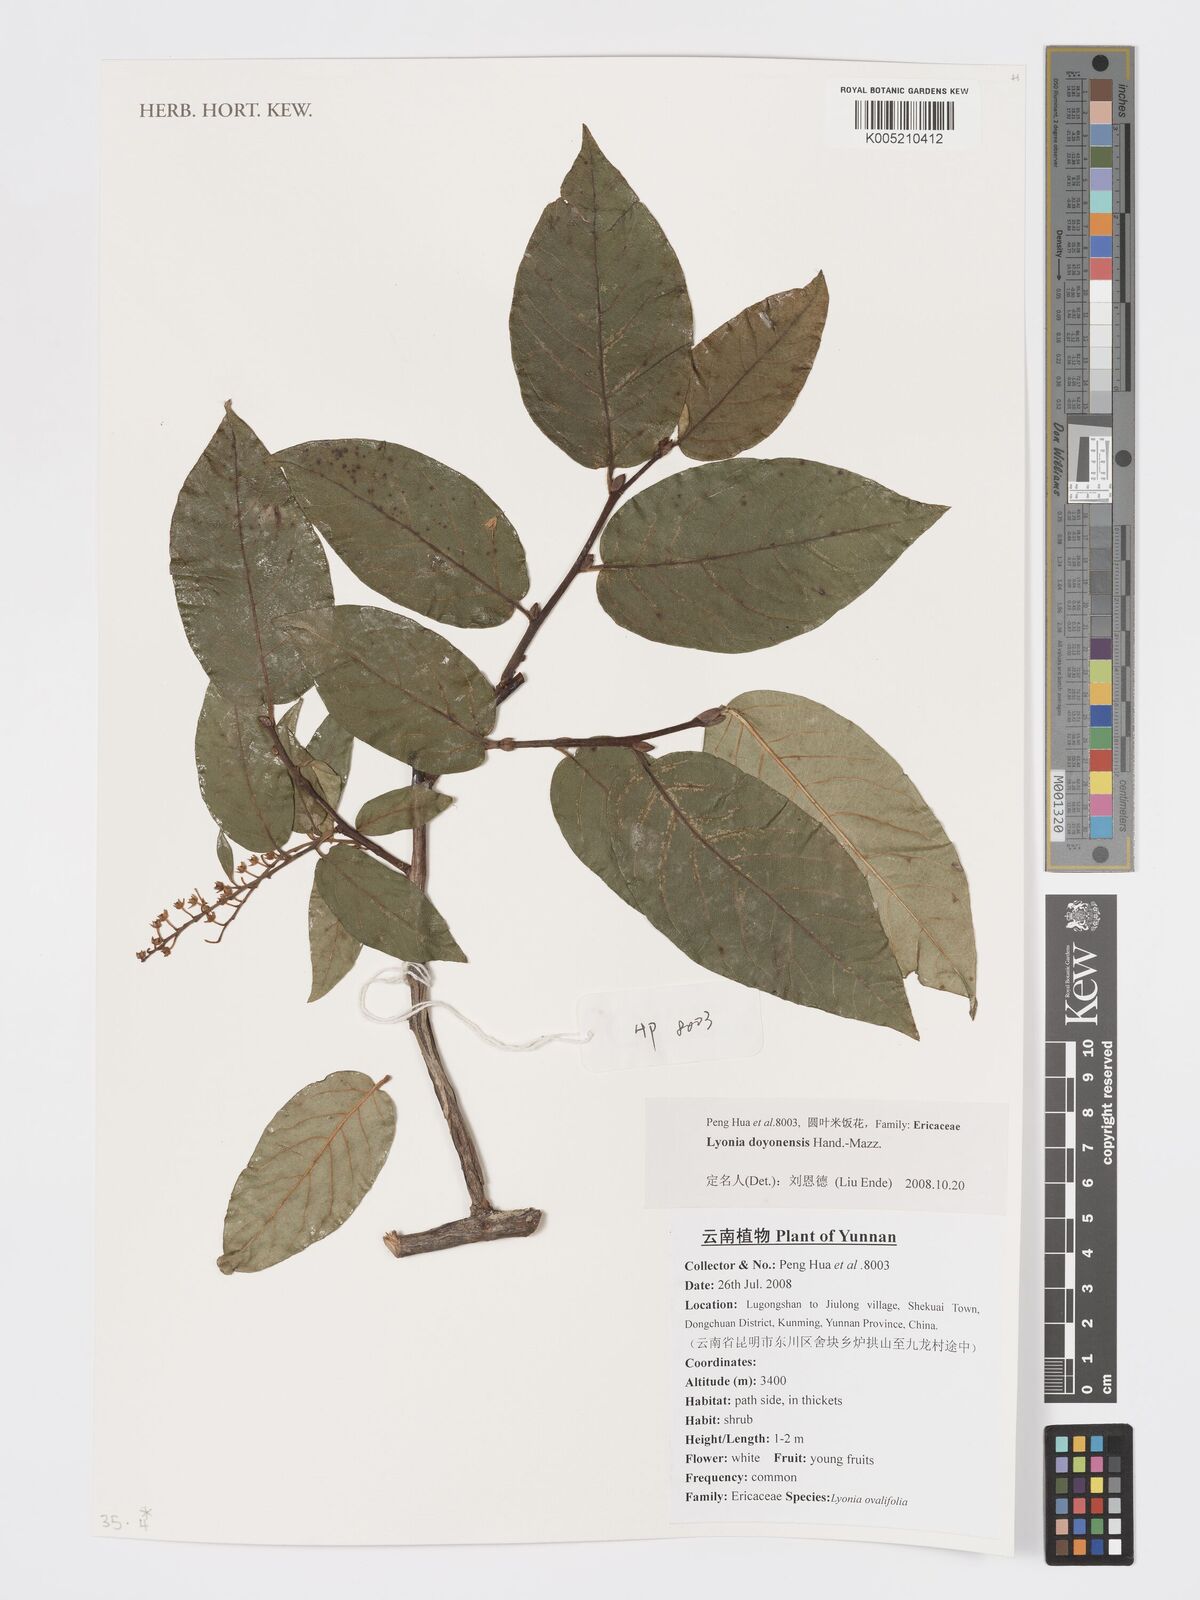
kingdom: Plantae
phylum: Tracheophyta
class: Magnoliopsida
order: Ericales
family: Ericaceae
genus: Lyonia
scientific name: Lyonia doyonensis
